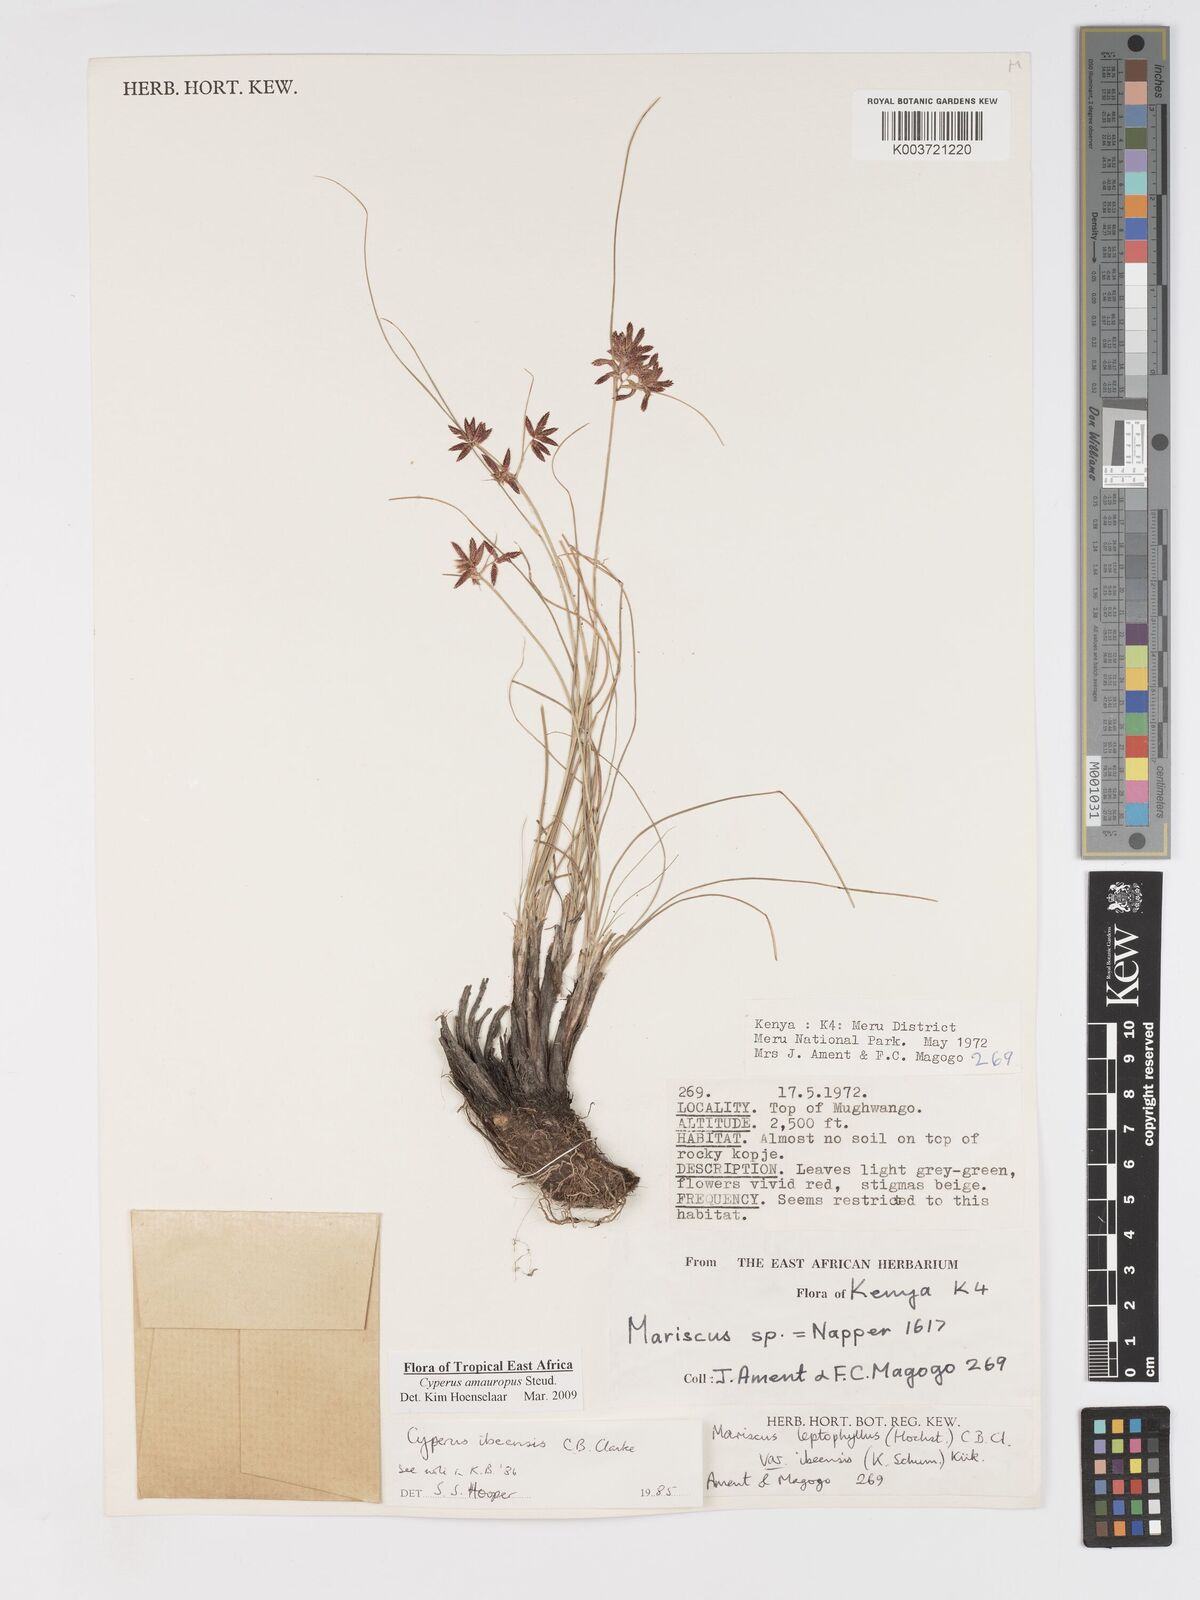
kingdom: Plantae
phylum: Tracheophyta
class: Liliopsida
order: Poales
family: Cyperaceae
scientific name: Cyperaceae
